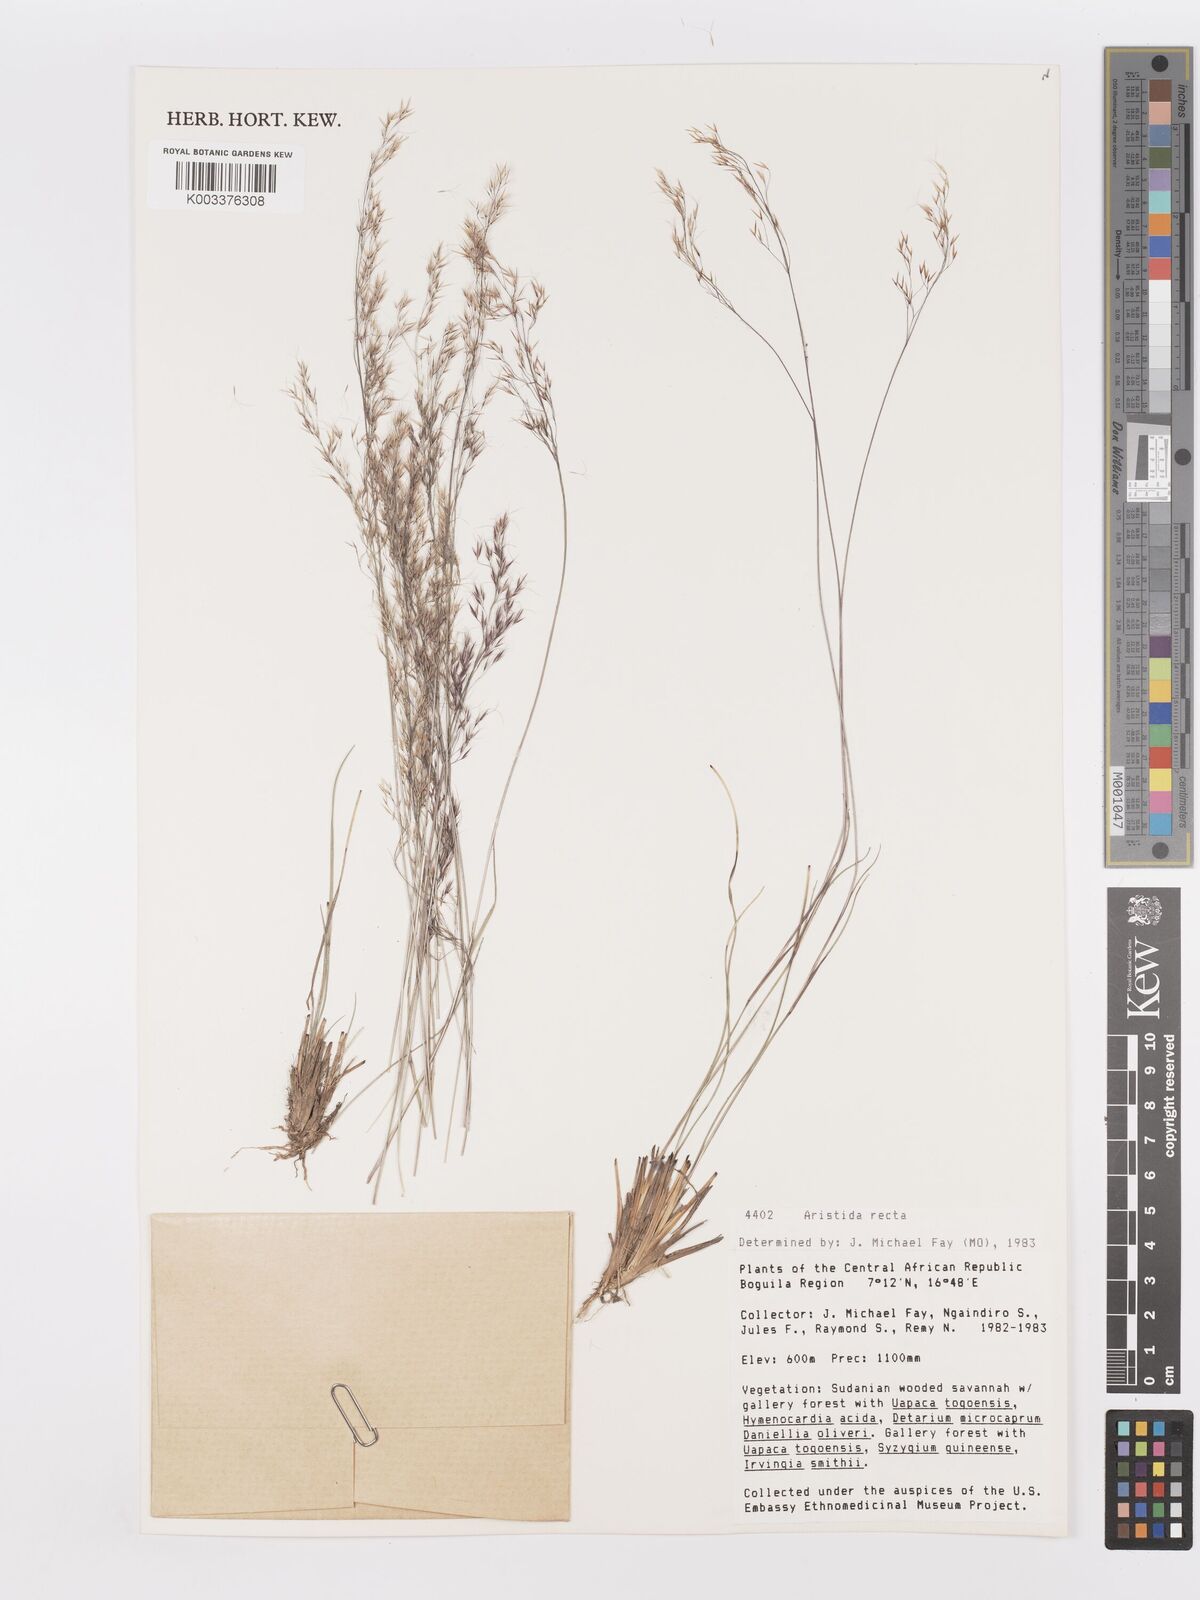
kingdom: Plantae
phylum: Tracheophyta
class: Liliopsida
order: Poales
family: Poaceae
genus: Aristida
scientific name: Aristida recta
